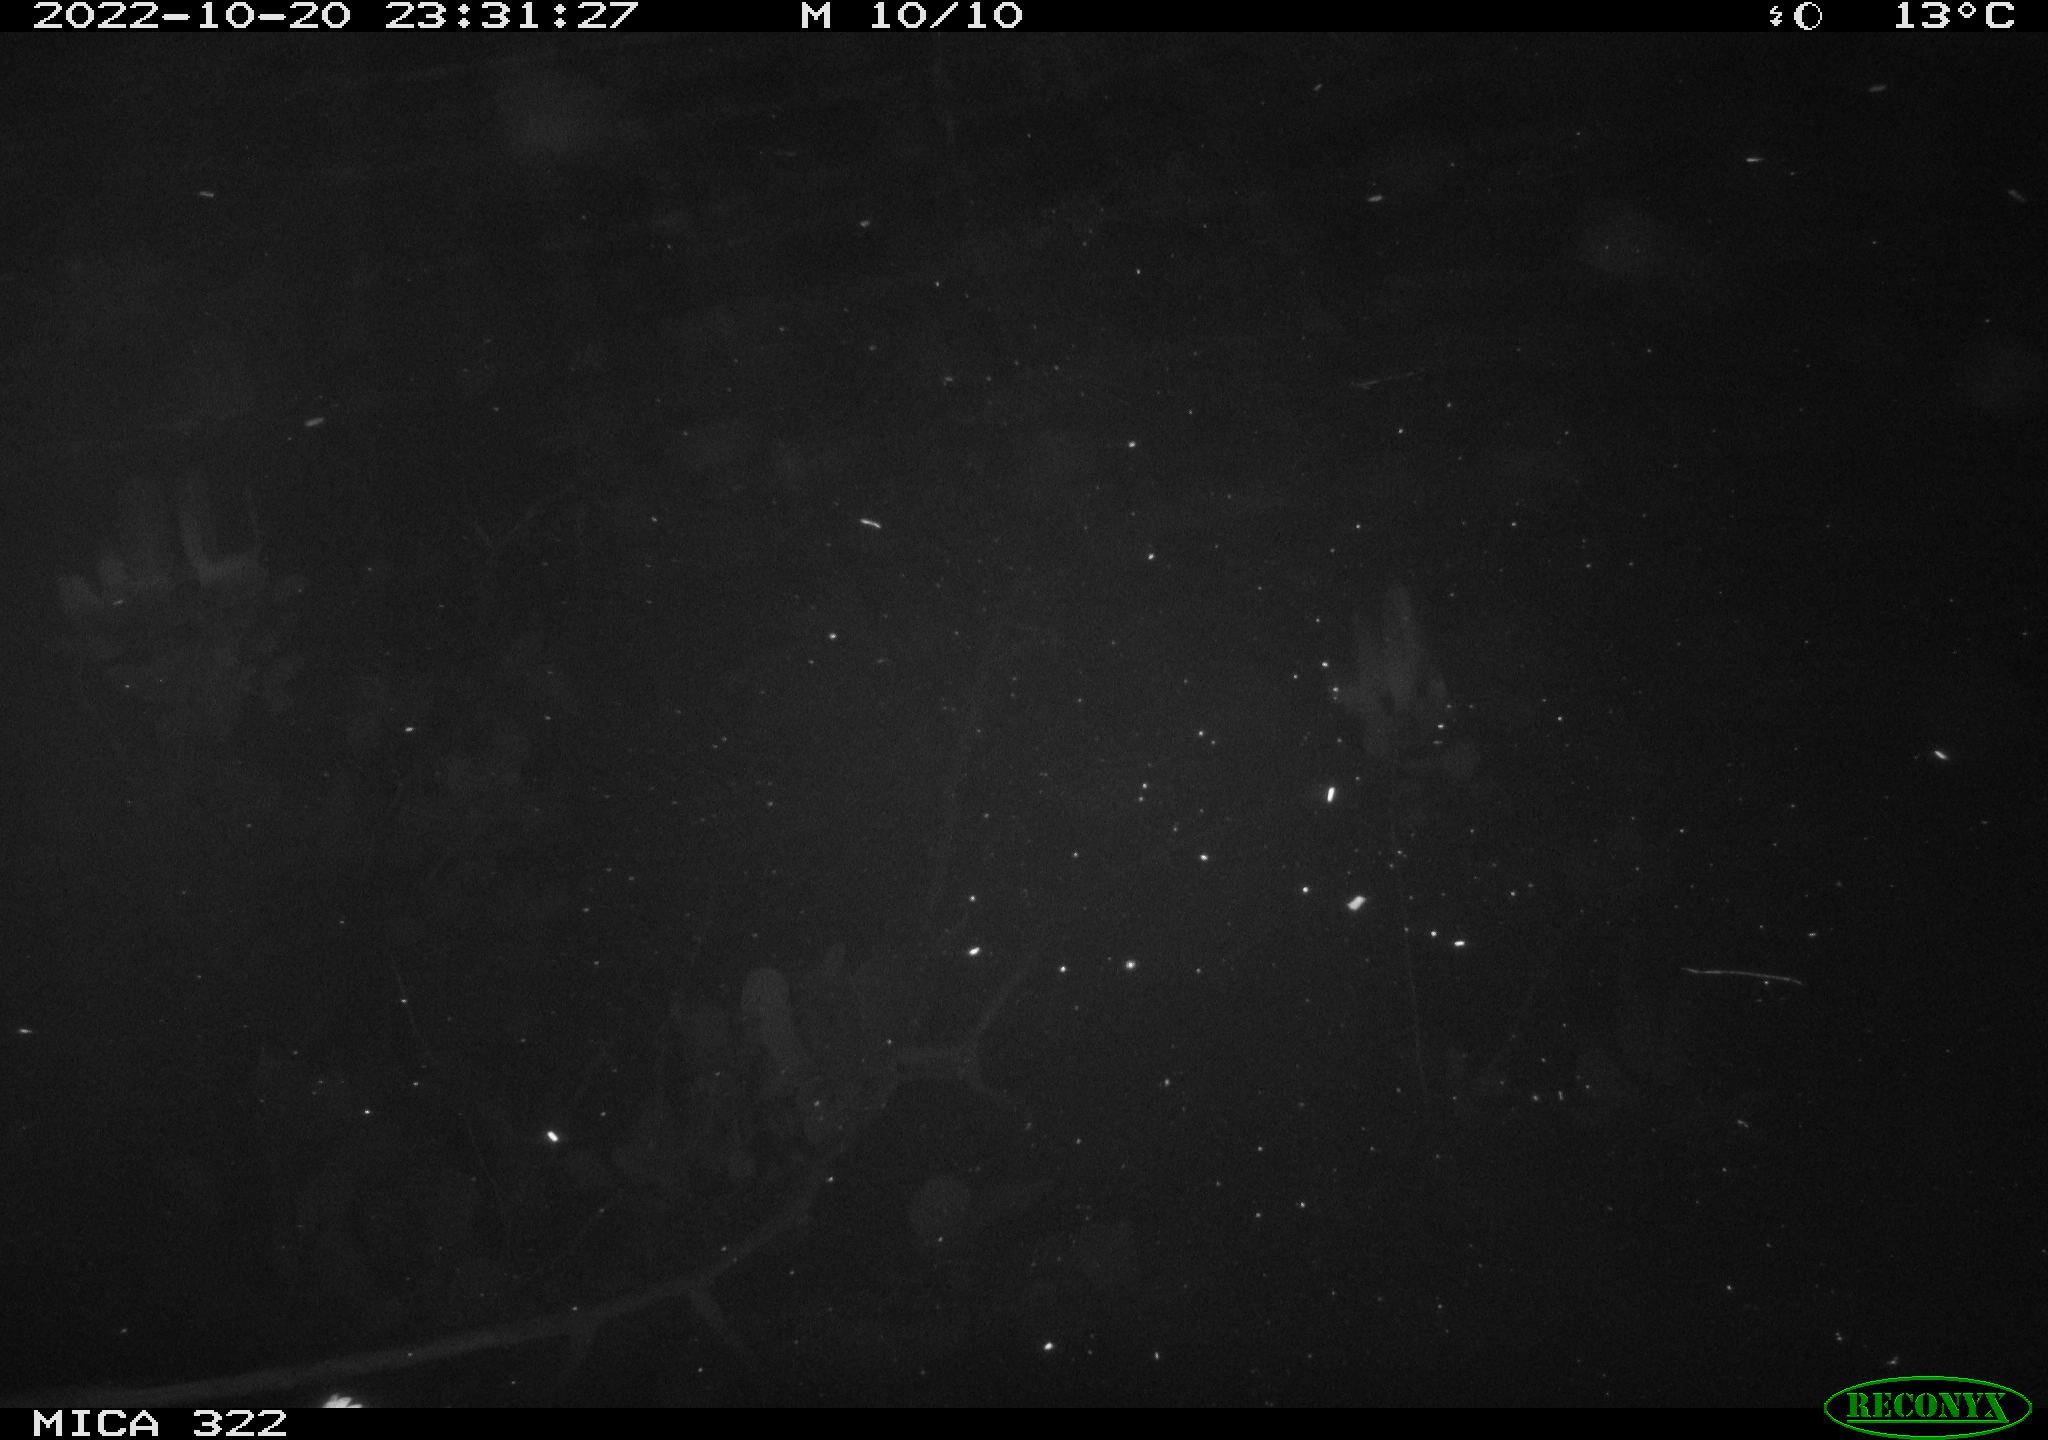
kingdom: Animalia
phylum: Chordata
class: Mammalia
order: Rodentia
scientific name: Rodentia
